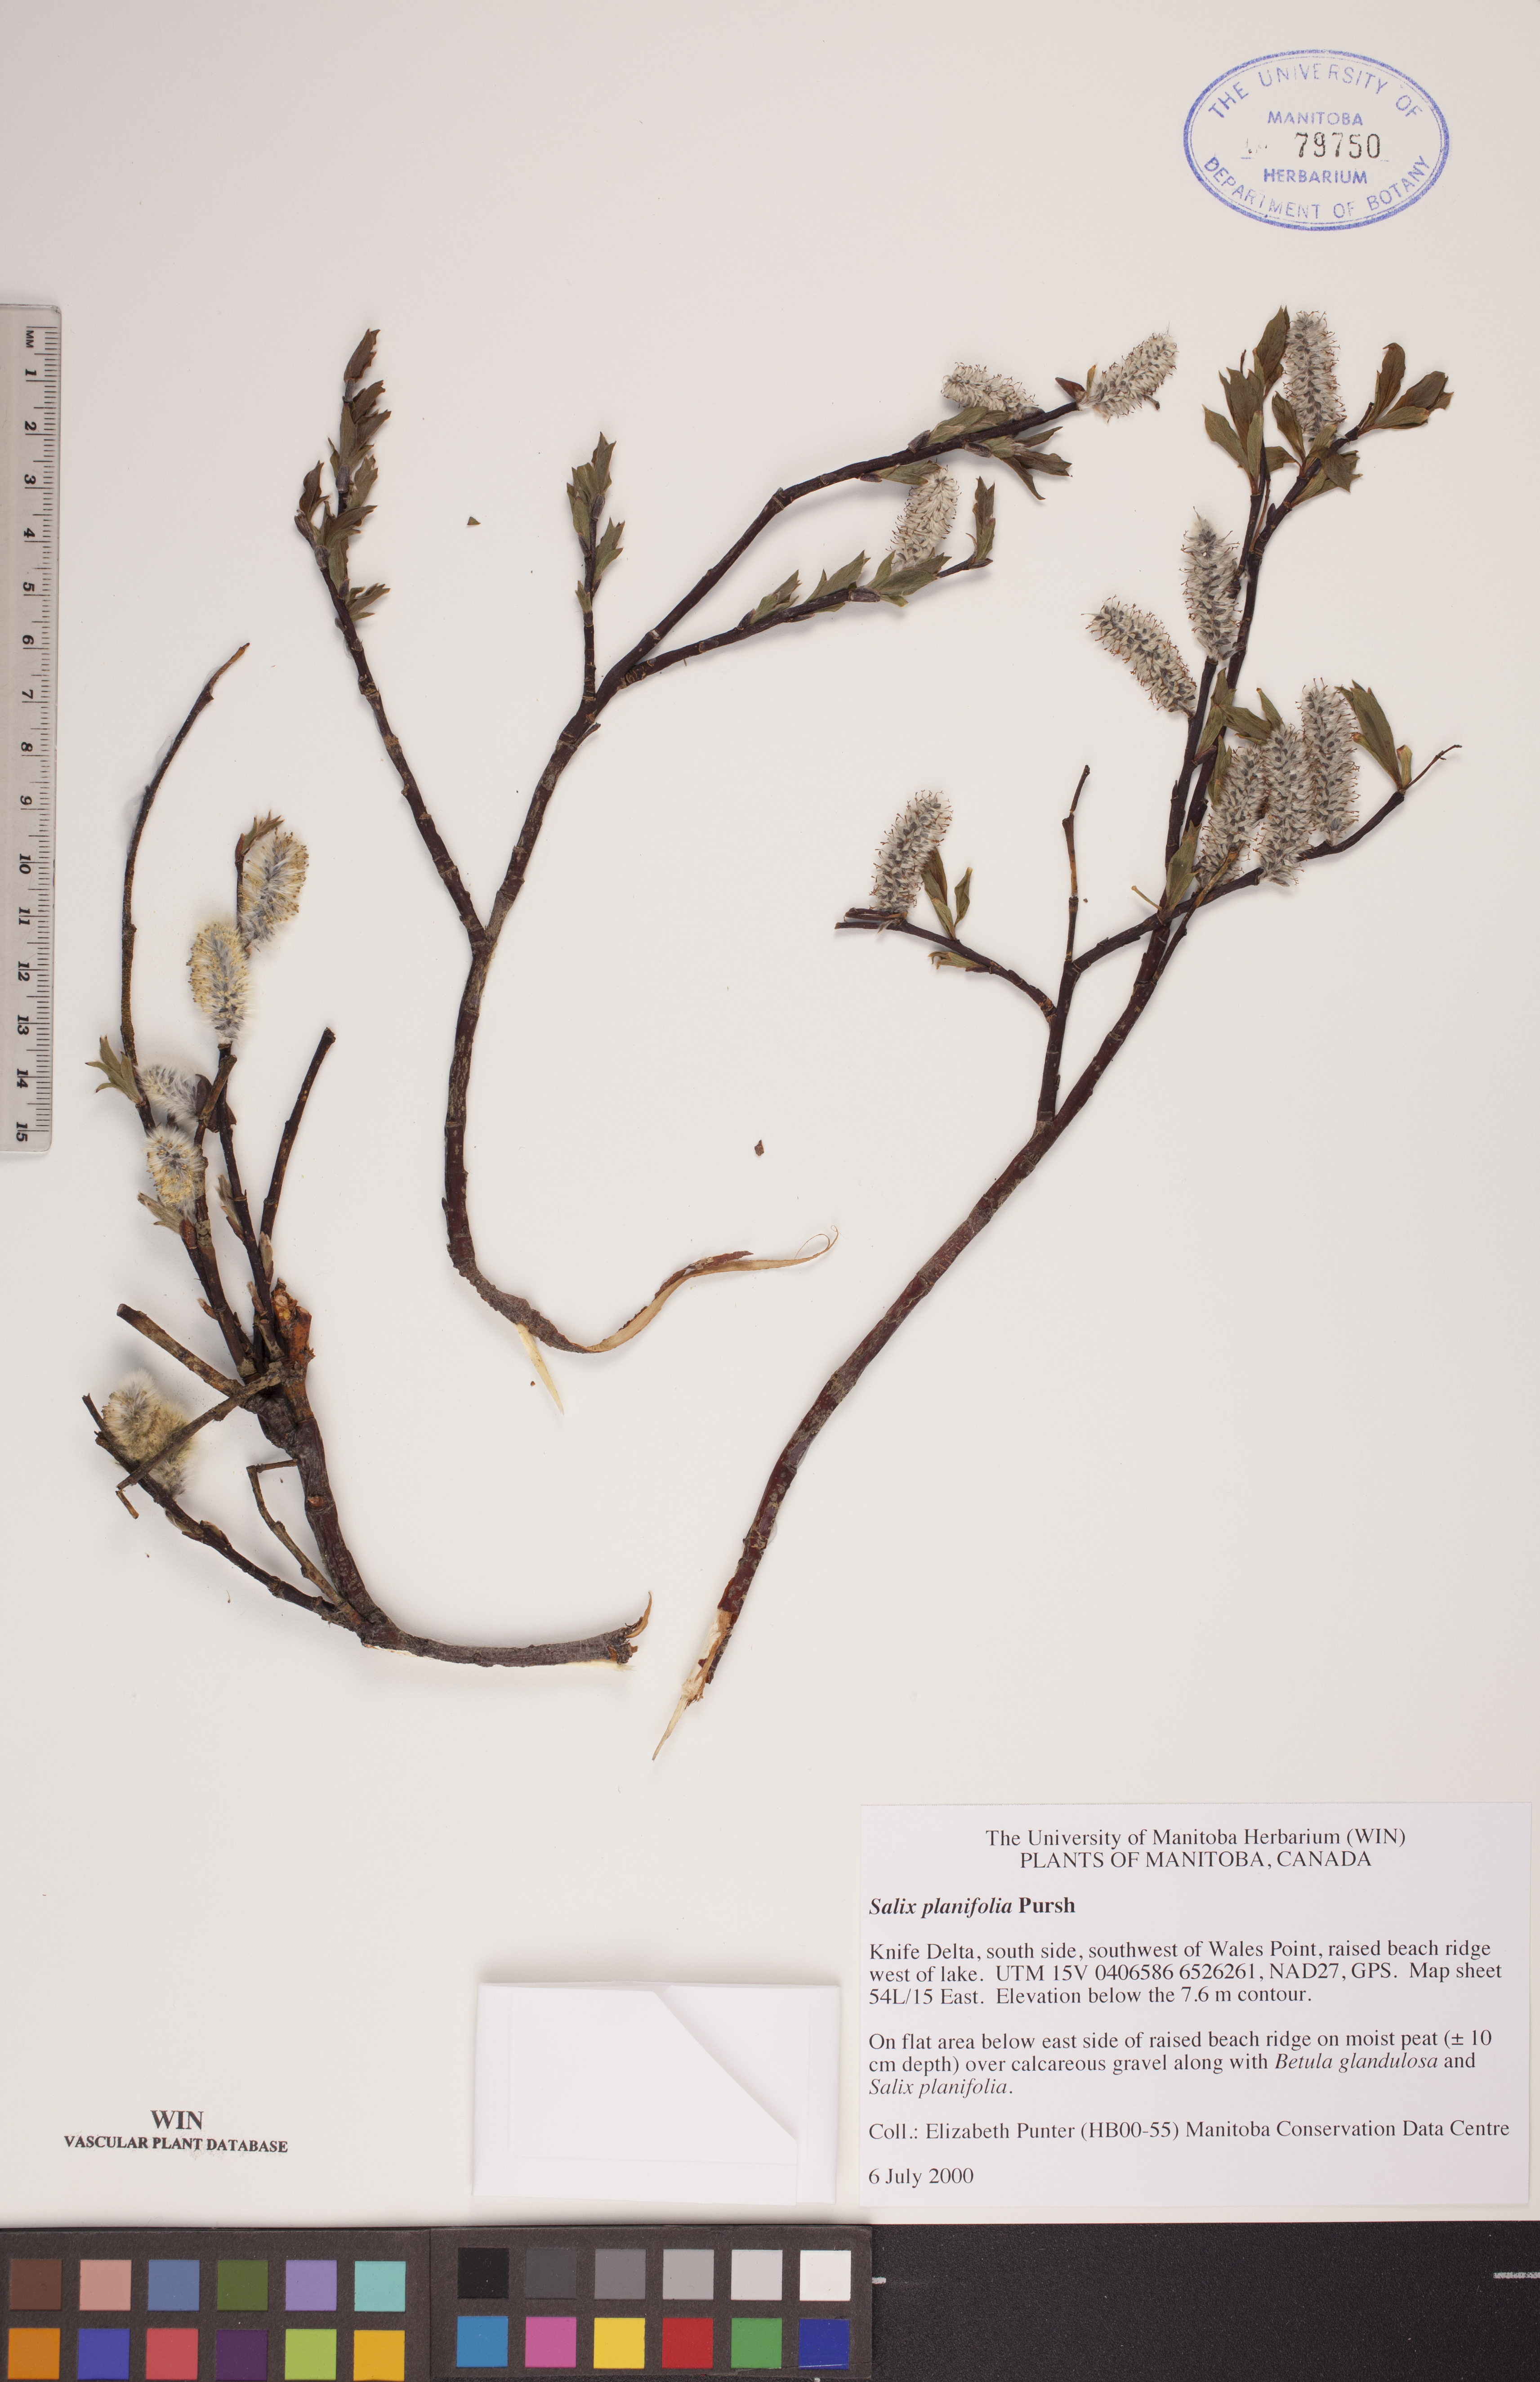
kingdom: Plantae
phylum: Tracheophyta
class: Magnoliopsida
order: Malpighiales
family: Salicaceae
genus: Salix
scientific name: Salix planifolia
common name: Mountain willow
